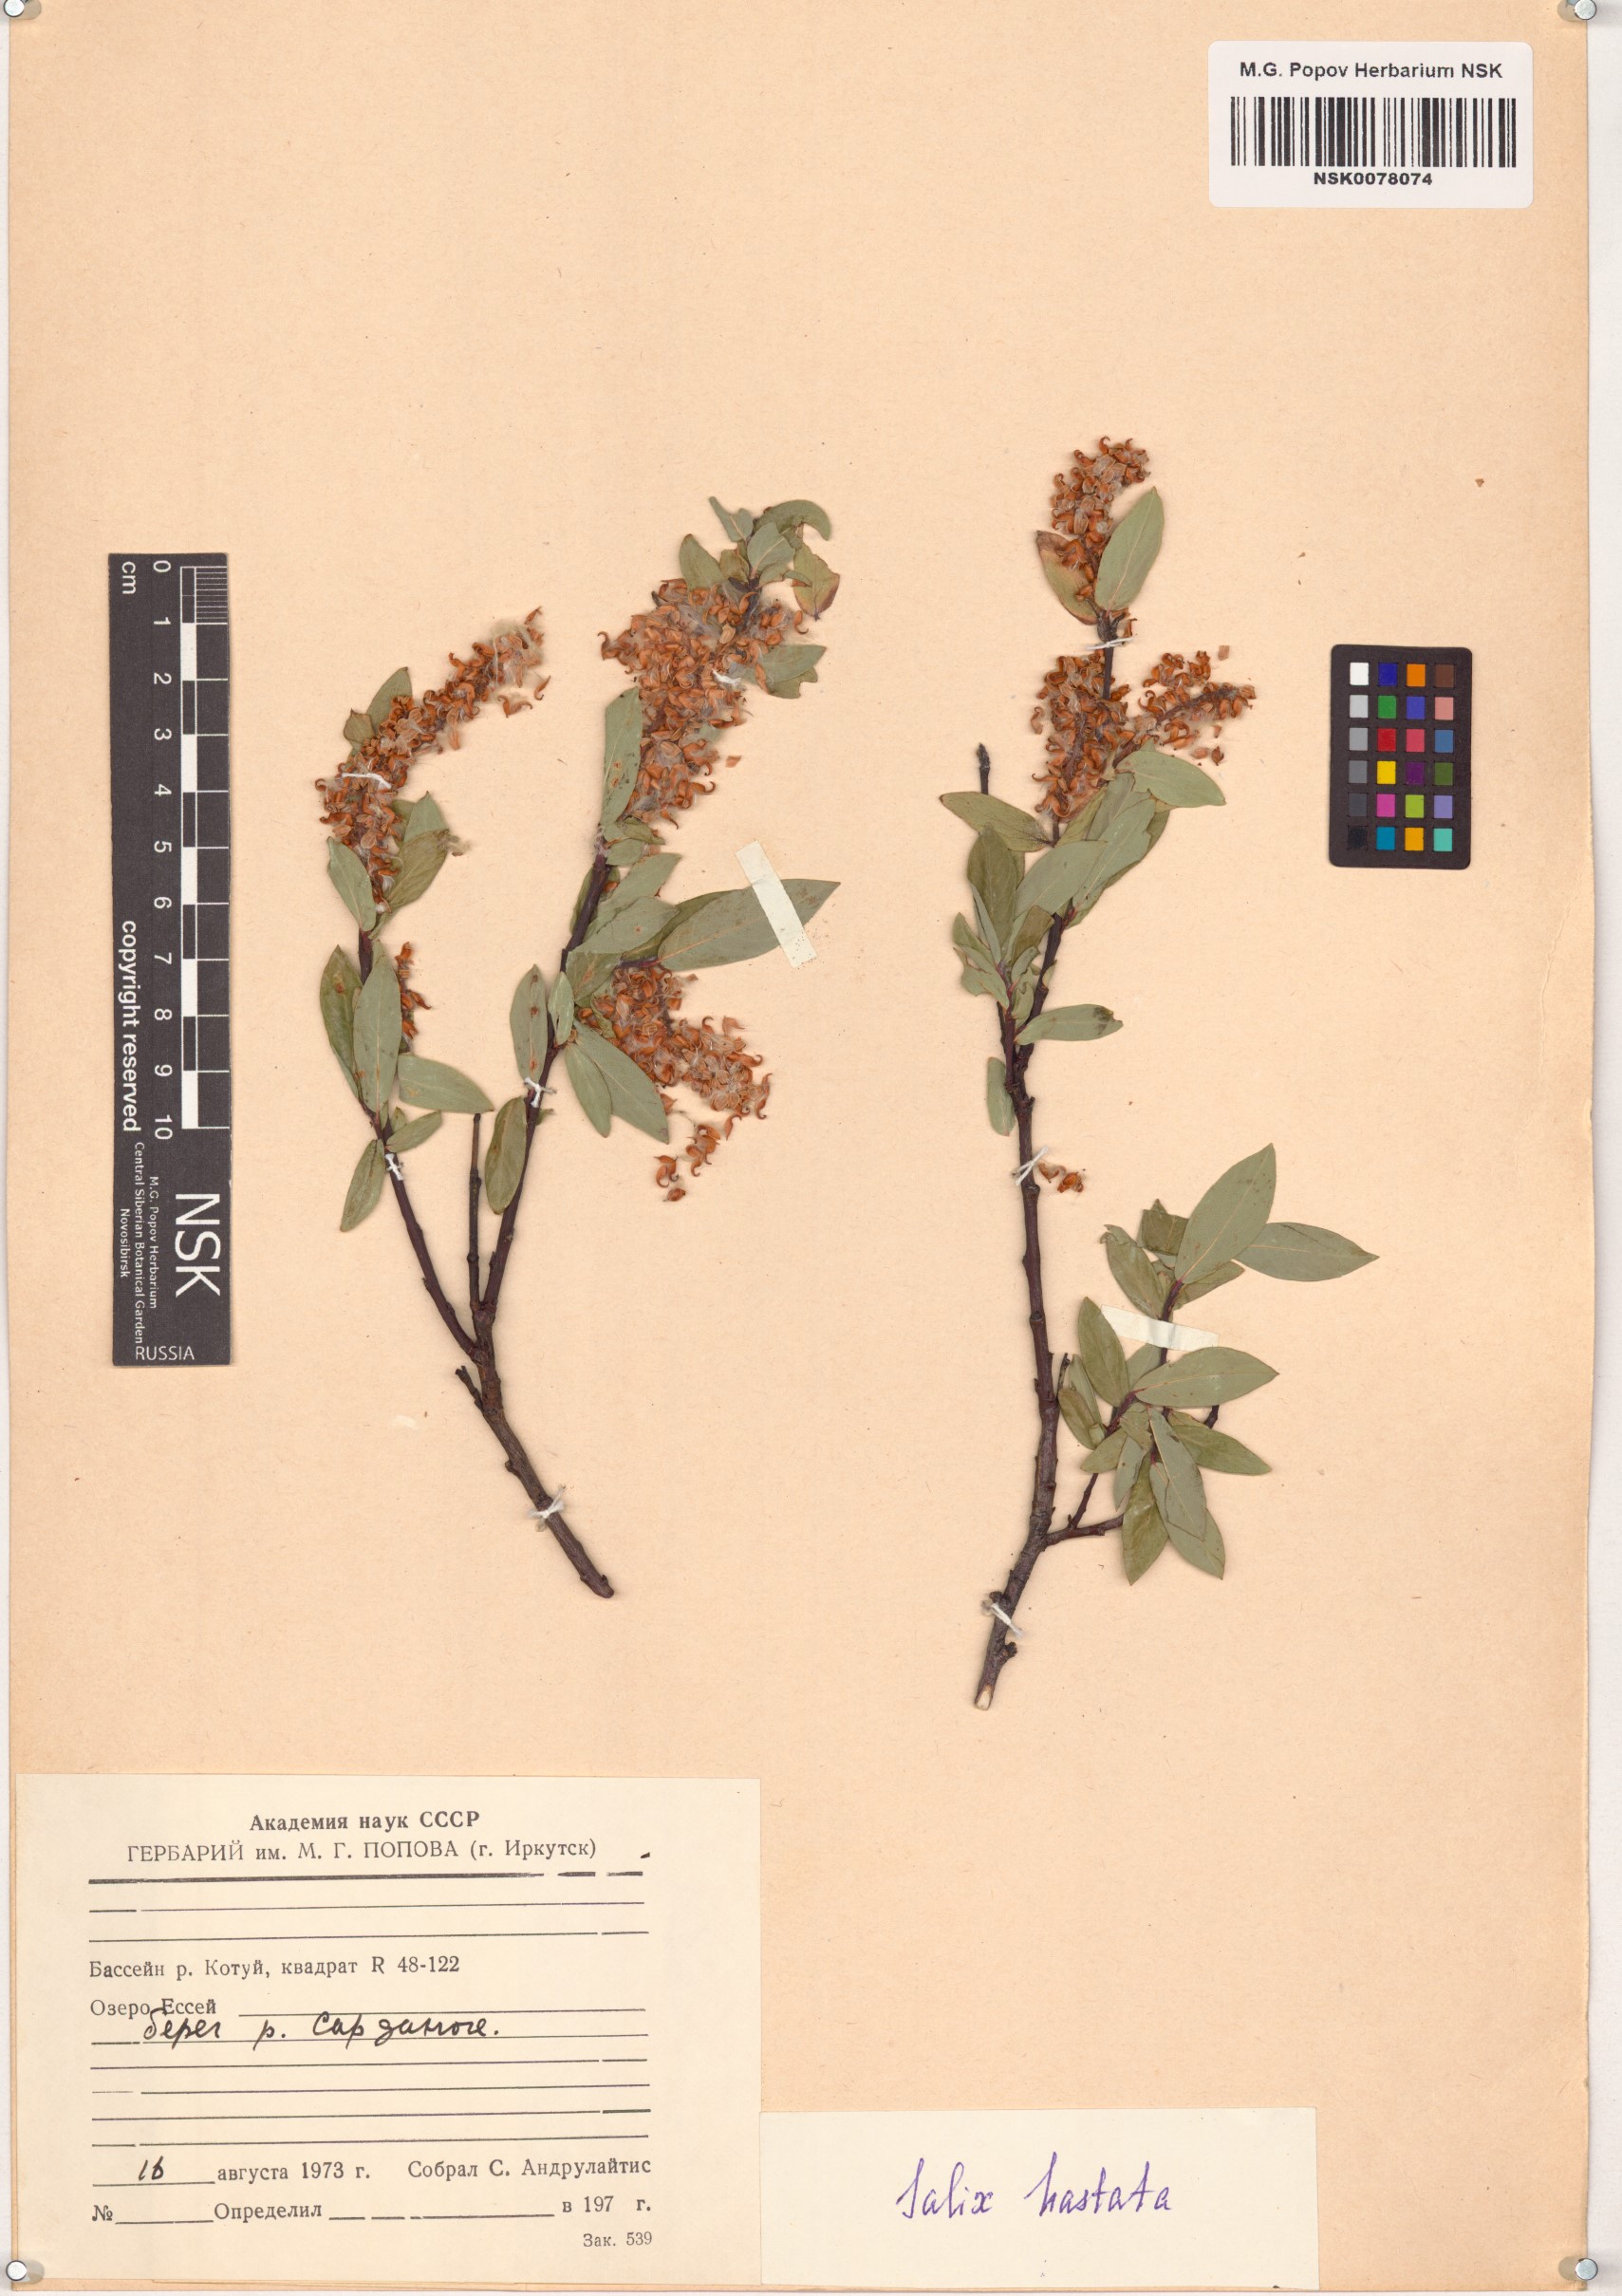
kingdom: Plantae
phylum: Tracheophyta
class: Magnoliopsida
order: Malpighiales
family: Salicaceae
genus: Salix
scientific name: Salix hastata
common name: Halberd willow
